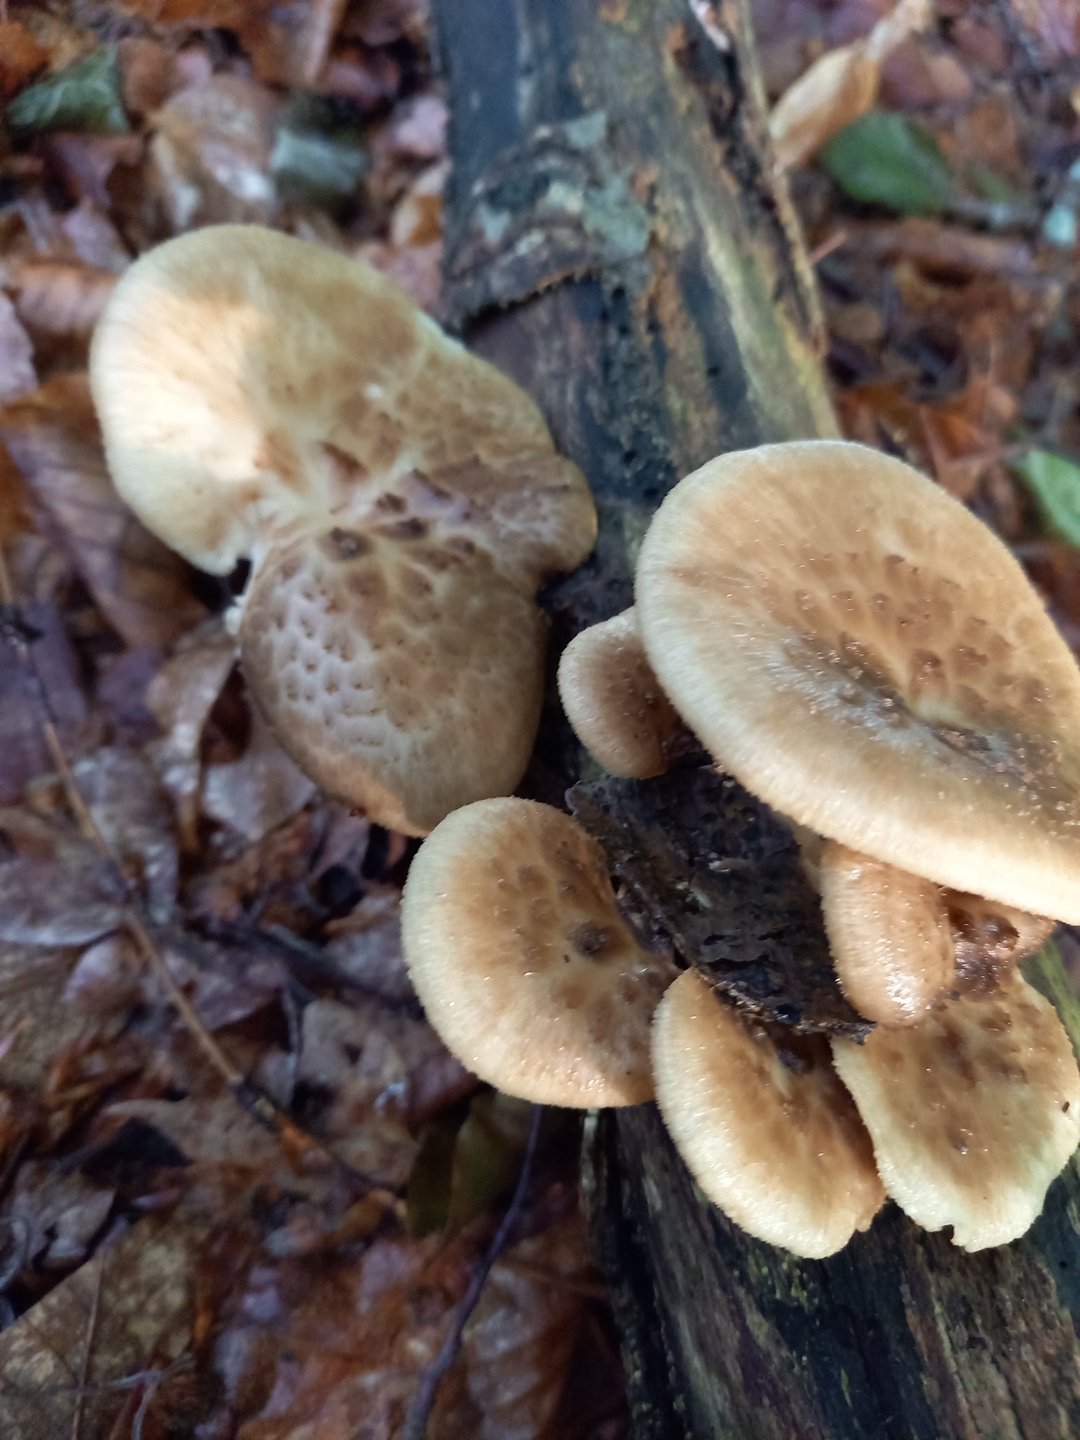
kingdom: Fungi
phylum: Basidiomycota
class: Agaricomycetes
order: Polyporales
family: Polyporaceae
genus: Polyporus
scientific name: Polyporus tuberaster
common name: knoldet stilkporesvamp
